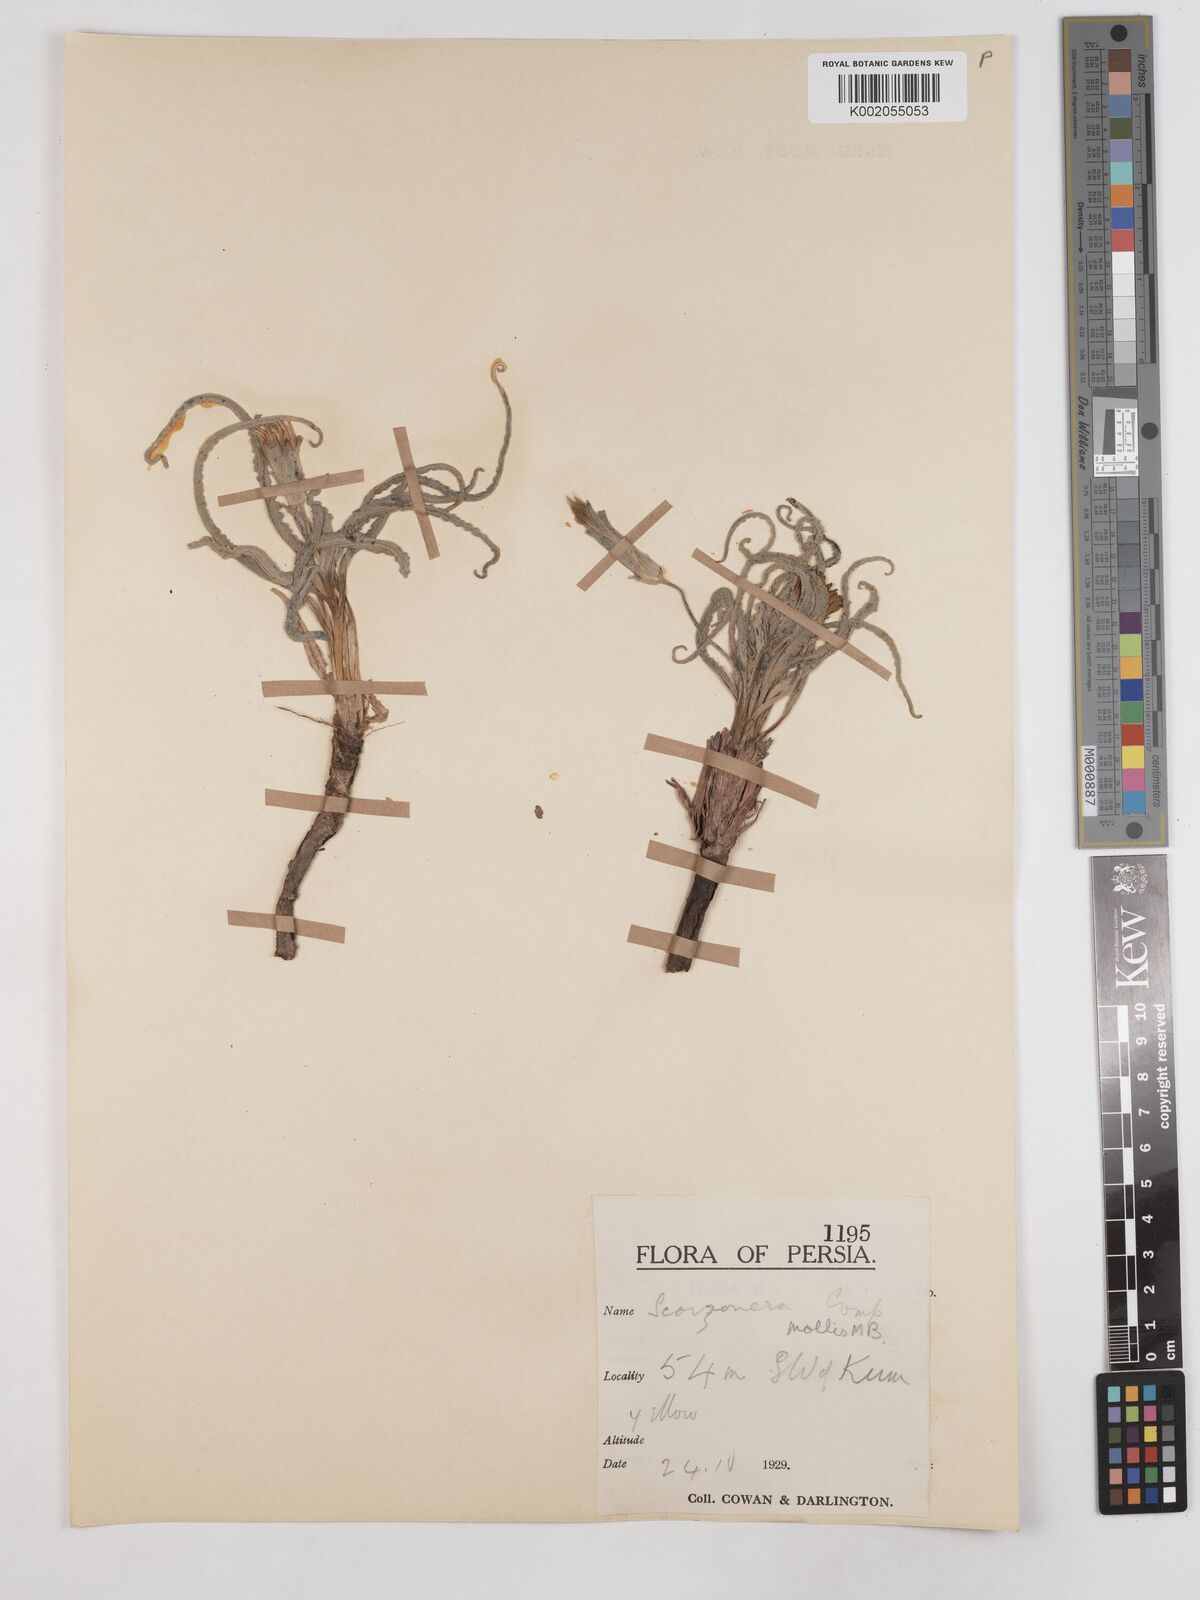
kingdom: Plantae
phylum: Tracheophyta
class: Magnoliopsida
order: Asterales
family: Asteraceae
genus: Candollea
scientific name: Candollea mollis
